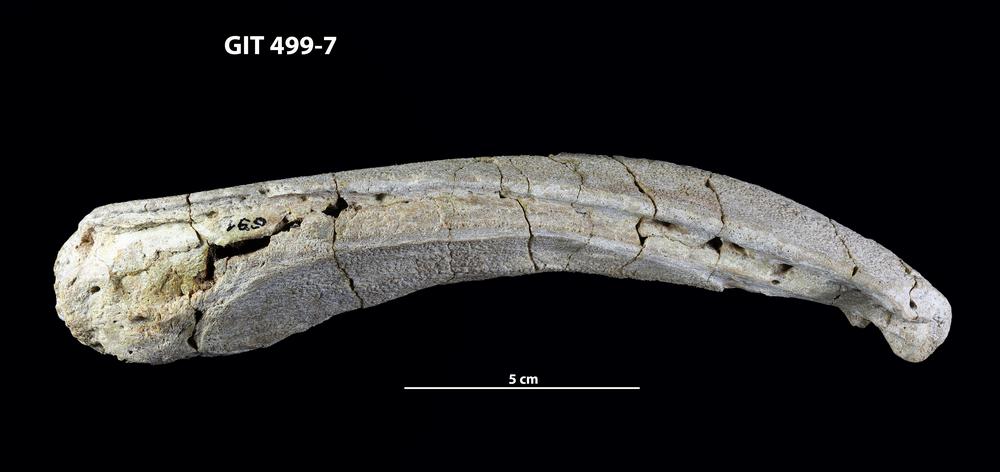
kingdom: Animalia
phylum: Chordata
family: Holoptychiidae
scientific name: Holoptychiidae
